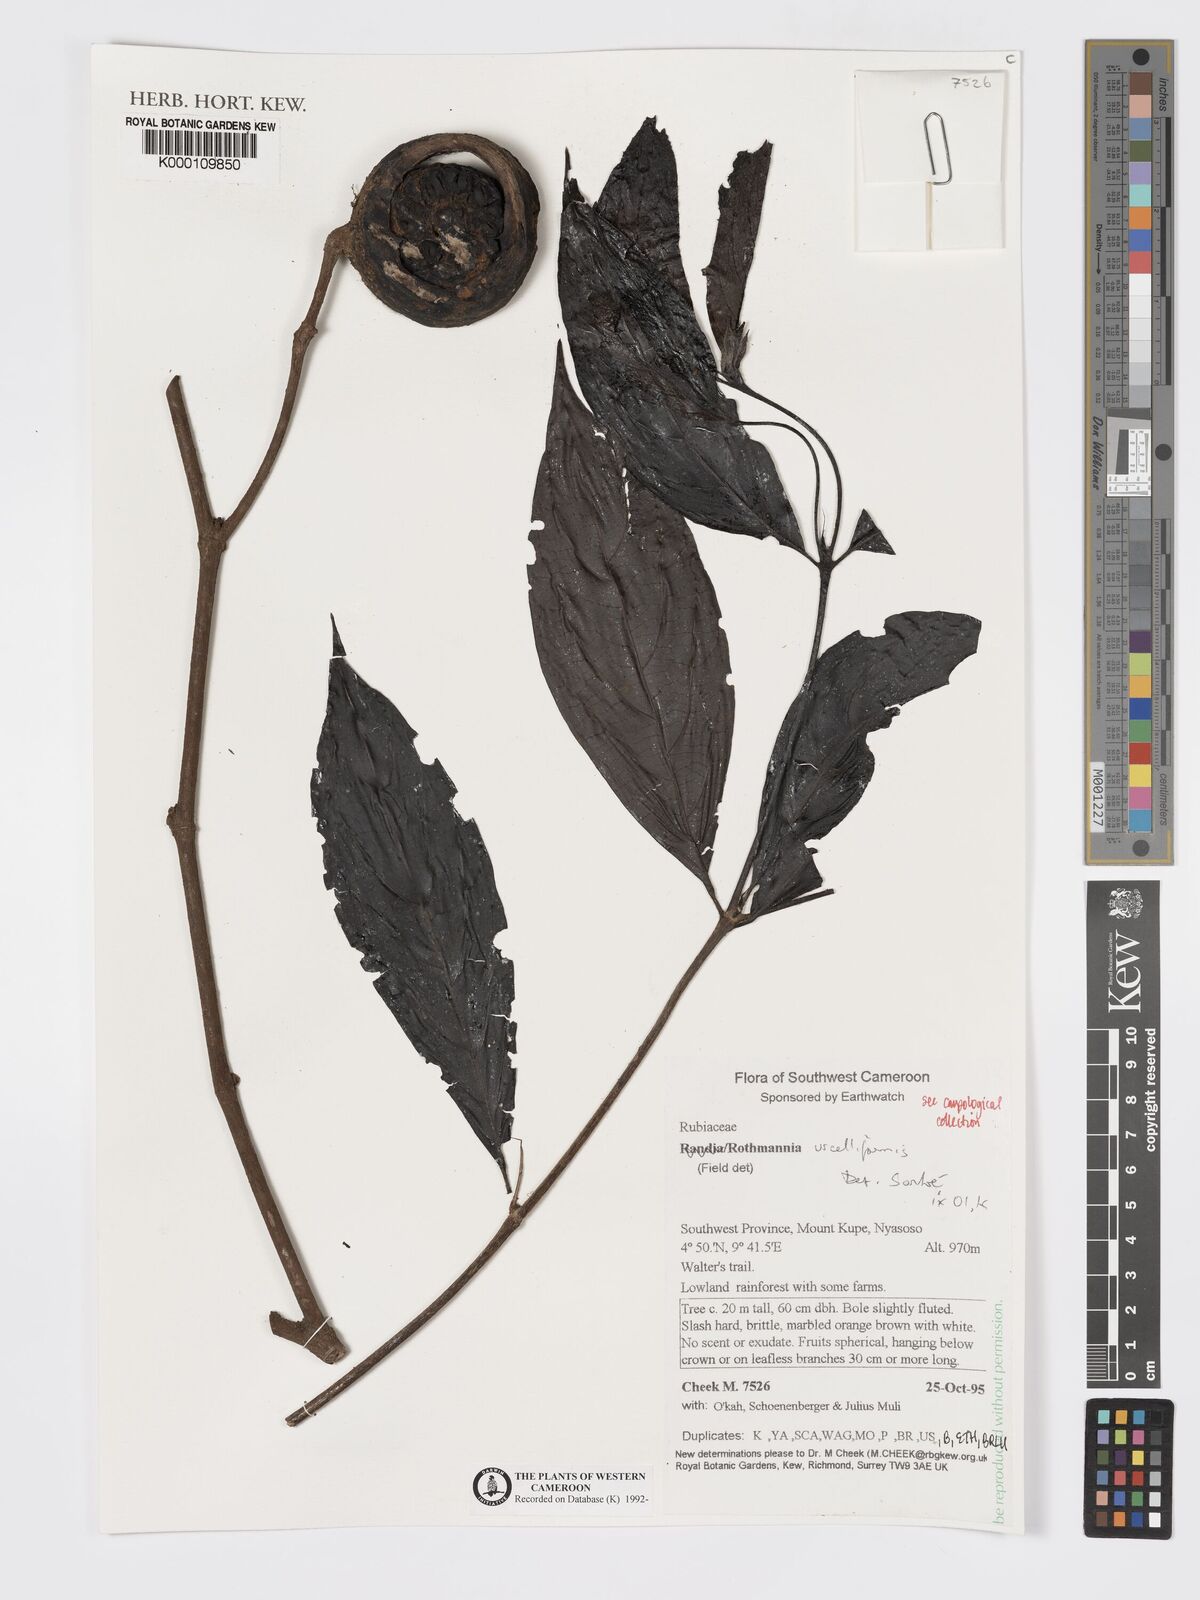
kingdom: Plantae
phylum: Tracheophyta
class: Magnoliopsida
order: Gentianales
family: Rubiaceae
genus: Rothmannia
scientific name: Rothmannia urcelliformis
